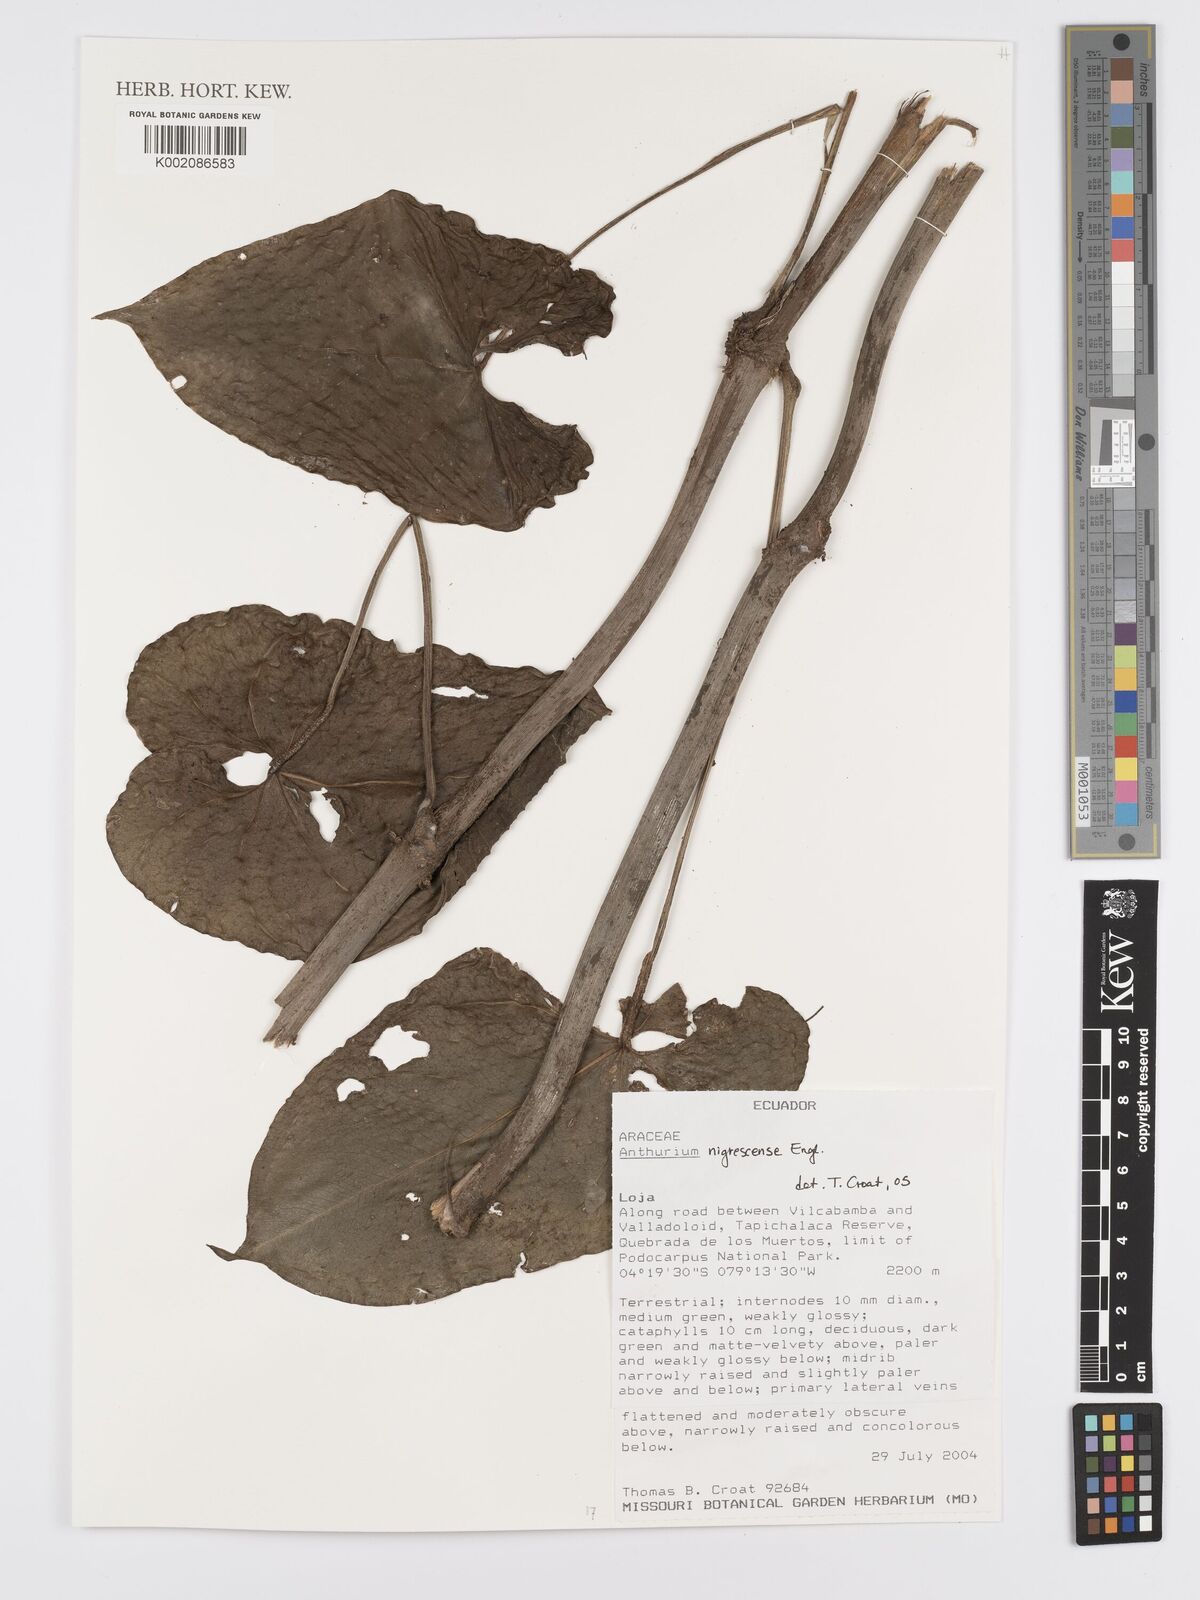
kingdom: Plantae
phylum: Tracheophyta
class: Liliopsida
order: Alismatales
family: Araceae
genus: Anthurium
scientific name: Anthurium nigrescens
